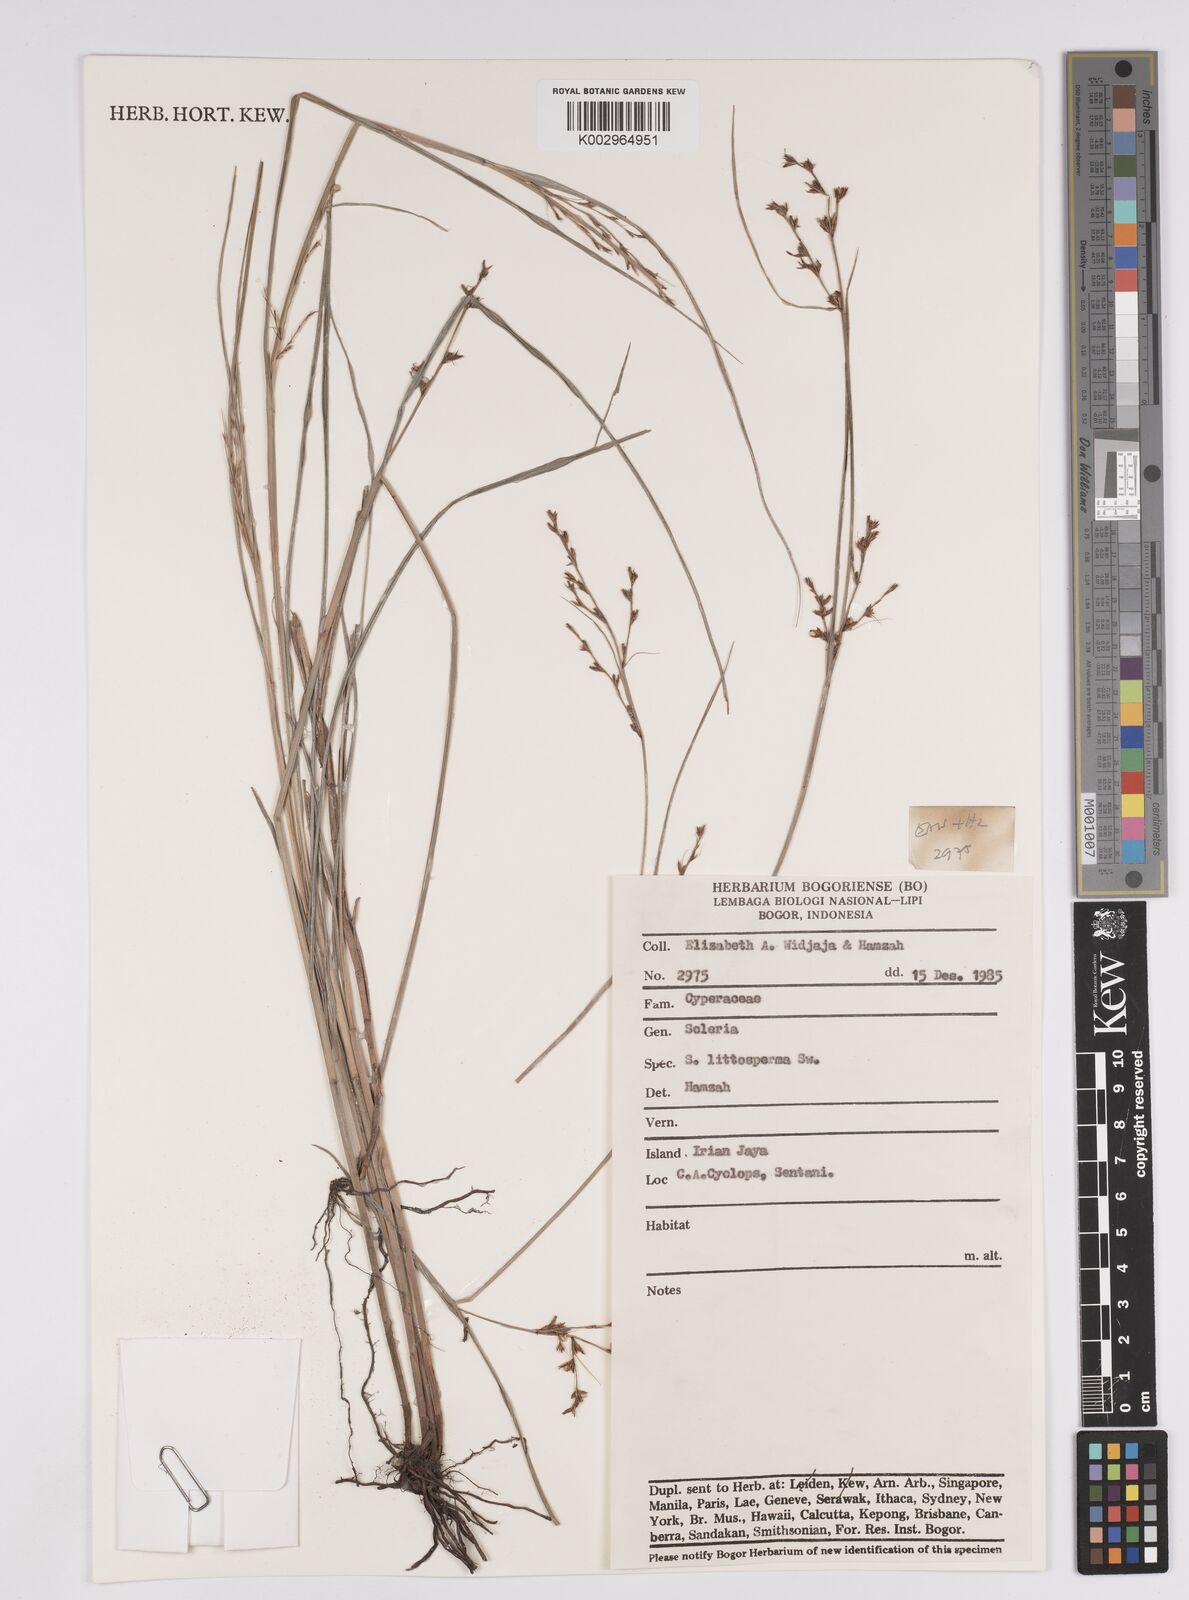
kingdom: Plantae
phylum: Tracheophyta
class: Liliopsida
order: Poales
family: Cyperaceae
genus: Scleria
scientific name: Scleria lithosperma
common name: Florida keys nut-rush
